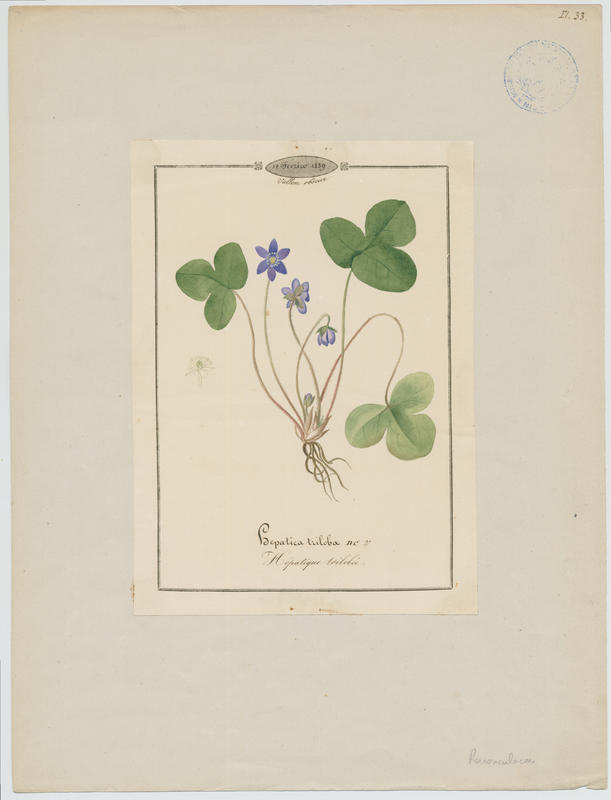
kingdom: Plantae
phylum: Tracheophyta
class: Magnoliopsida
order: Ranunculales
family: Ranunculaceae
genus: Hepatica
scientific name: Hepatica nobilis
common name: Liverleaf
